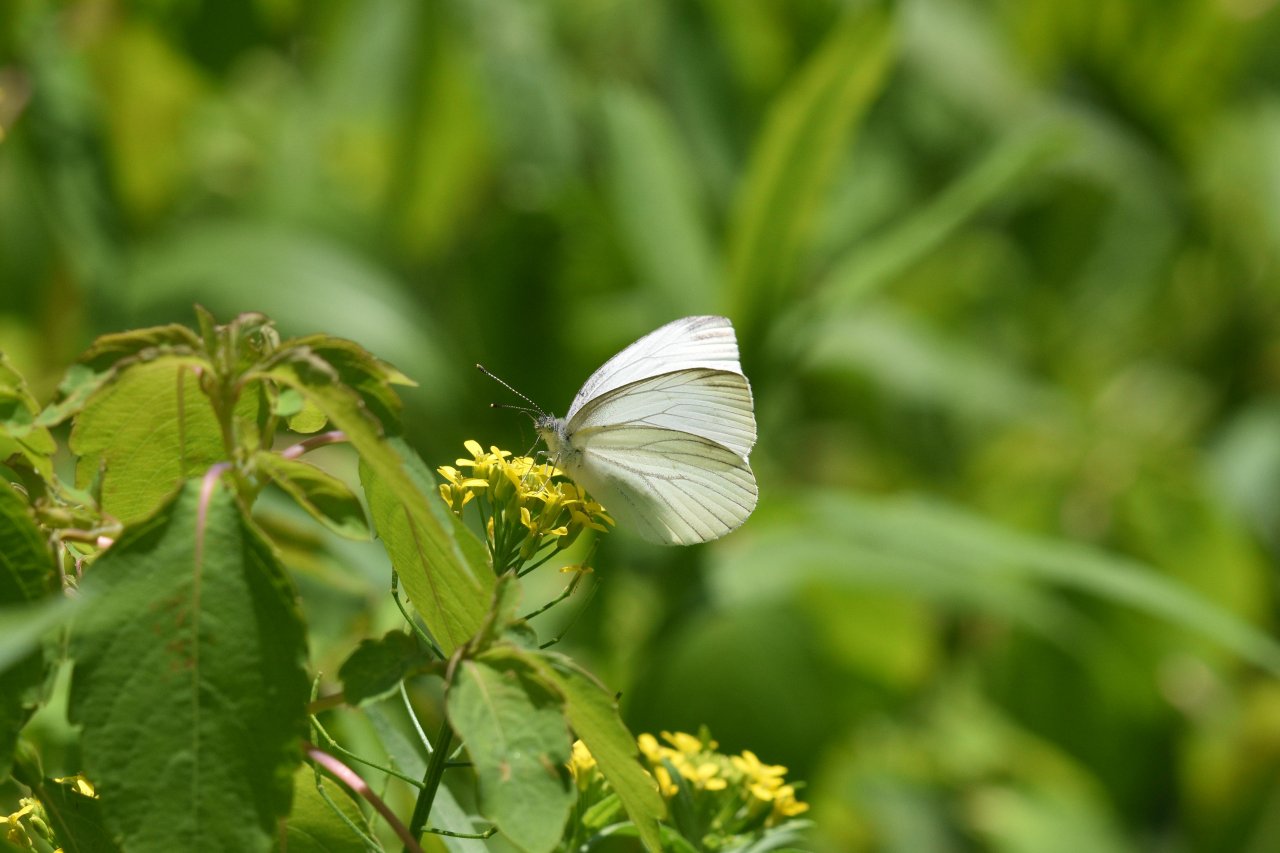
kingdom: Animalia
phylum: Arthropoda
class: Insecta
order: Lepidoptera
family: Pieridae
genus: Pieris
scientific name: Pieris oleracea
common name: Mustard White
